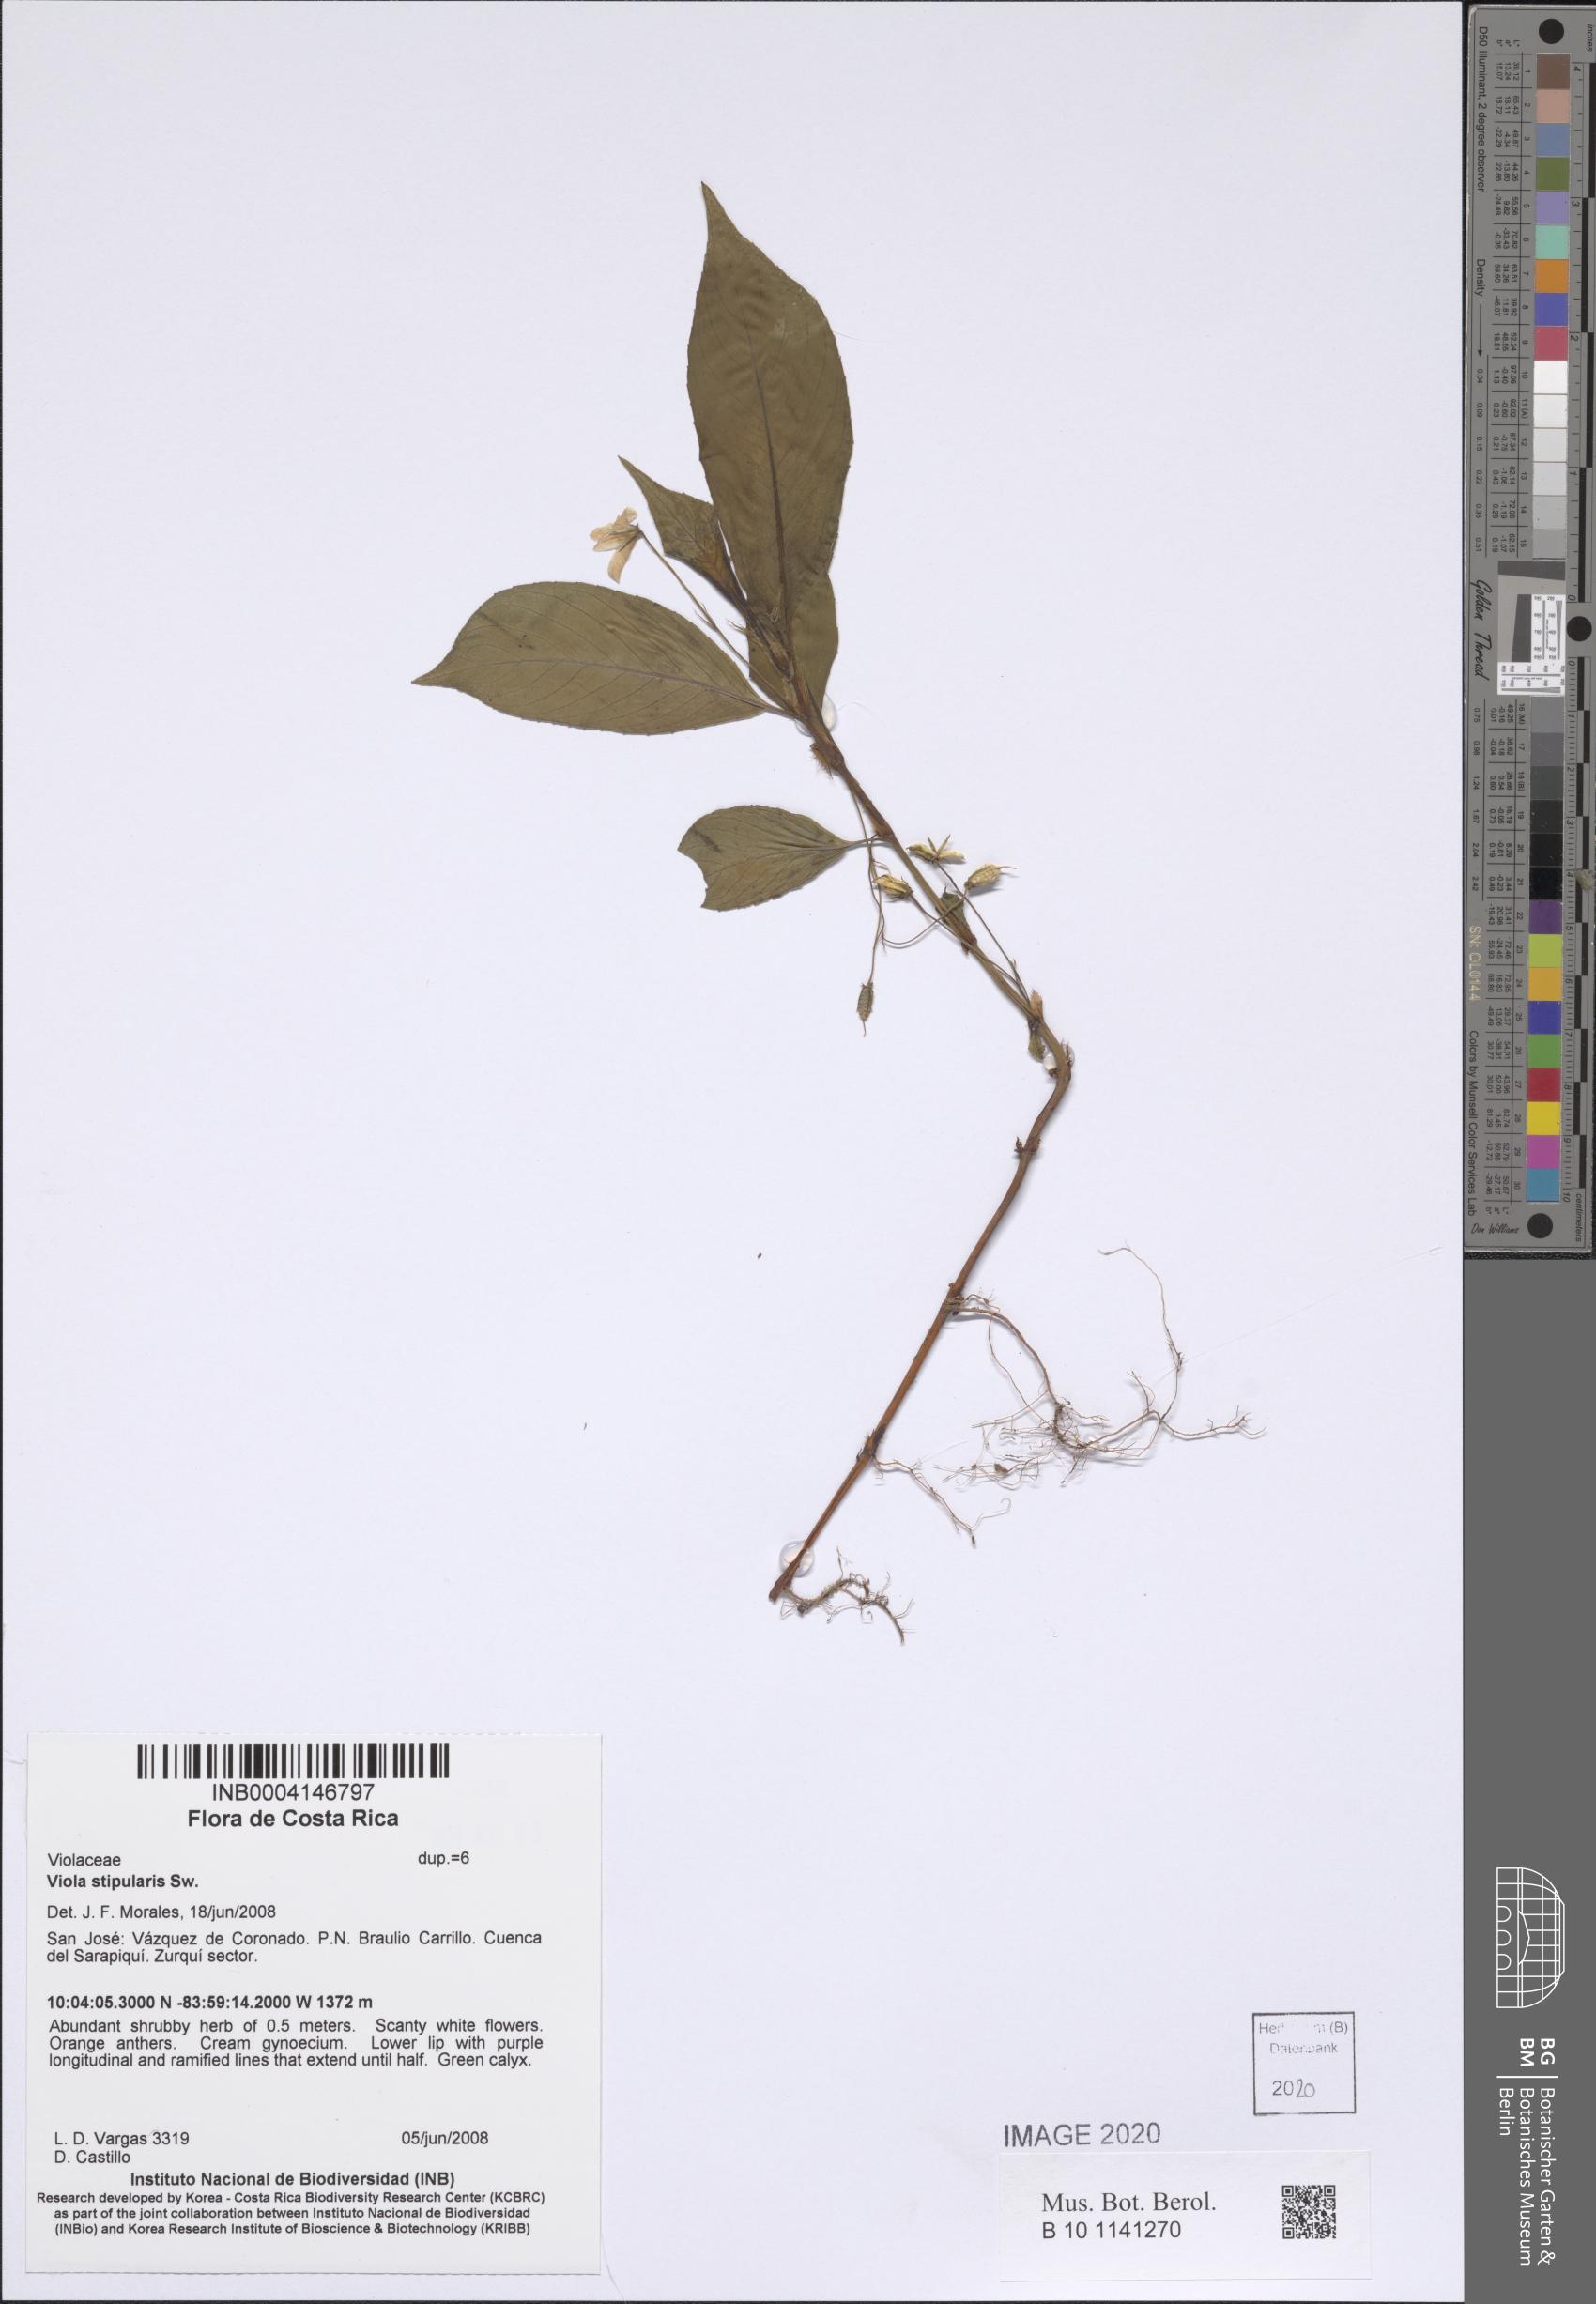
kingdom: Plantae
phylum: Tracheophyta
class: Magnoliopsida
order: Malpighiales
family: Violaceae
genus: Viola
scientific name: Viola stipularis
